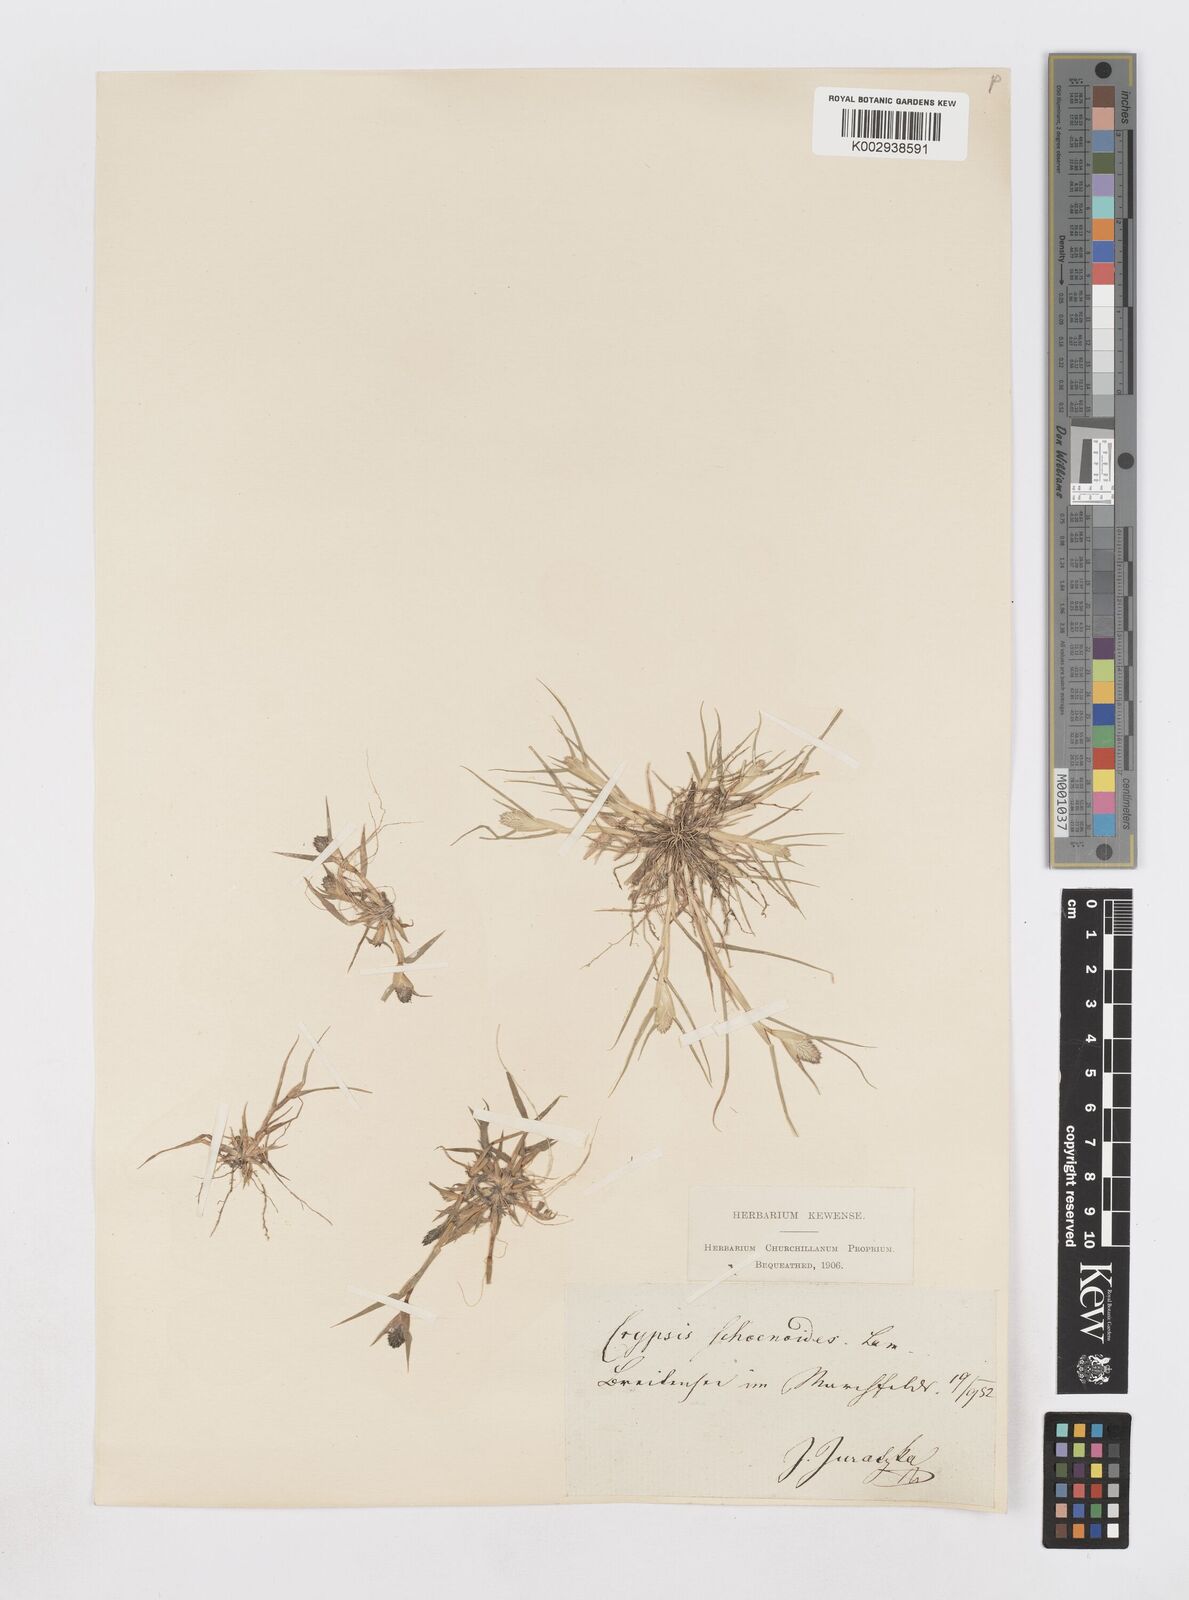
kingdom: Plantae
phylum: Tracheophyta
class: Liliopsida
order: Poales
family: Poaceae
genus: Sporobolus
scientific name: Sporobolus schoenoides
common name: Rush-like timothy
